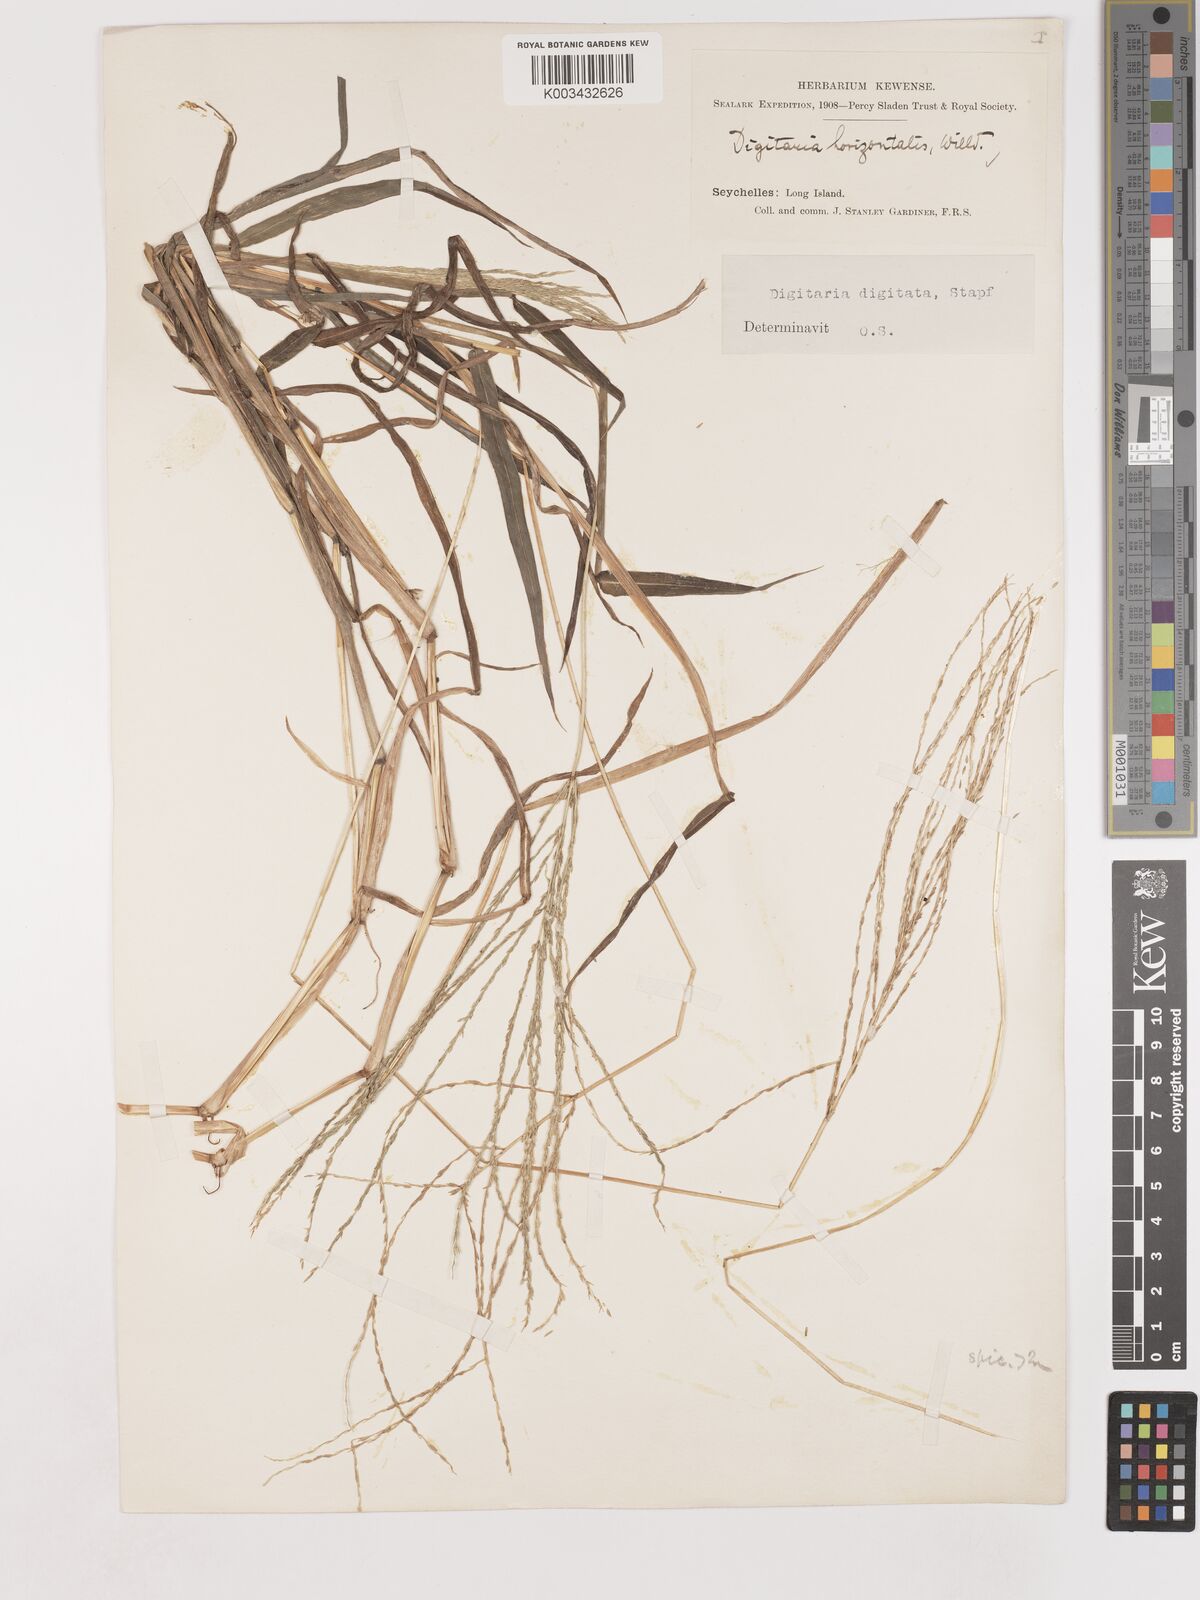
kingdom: Plantae
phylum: Tracheophyta
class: Liliopsida
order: Poales
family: Poaceae
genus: Digitaria
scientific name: Digitaria horizontalis
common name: Jamaican crabgrass
